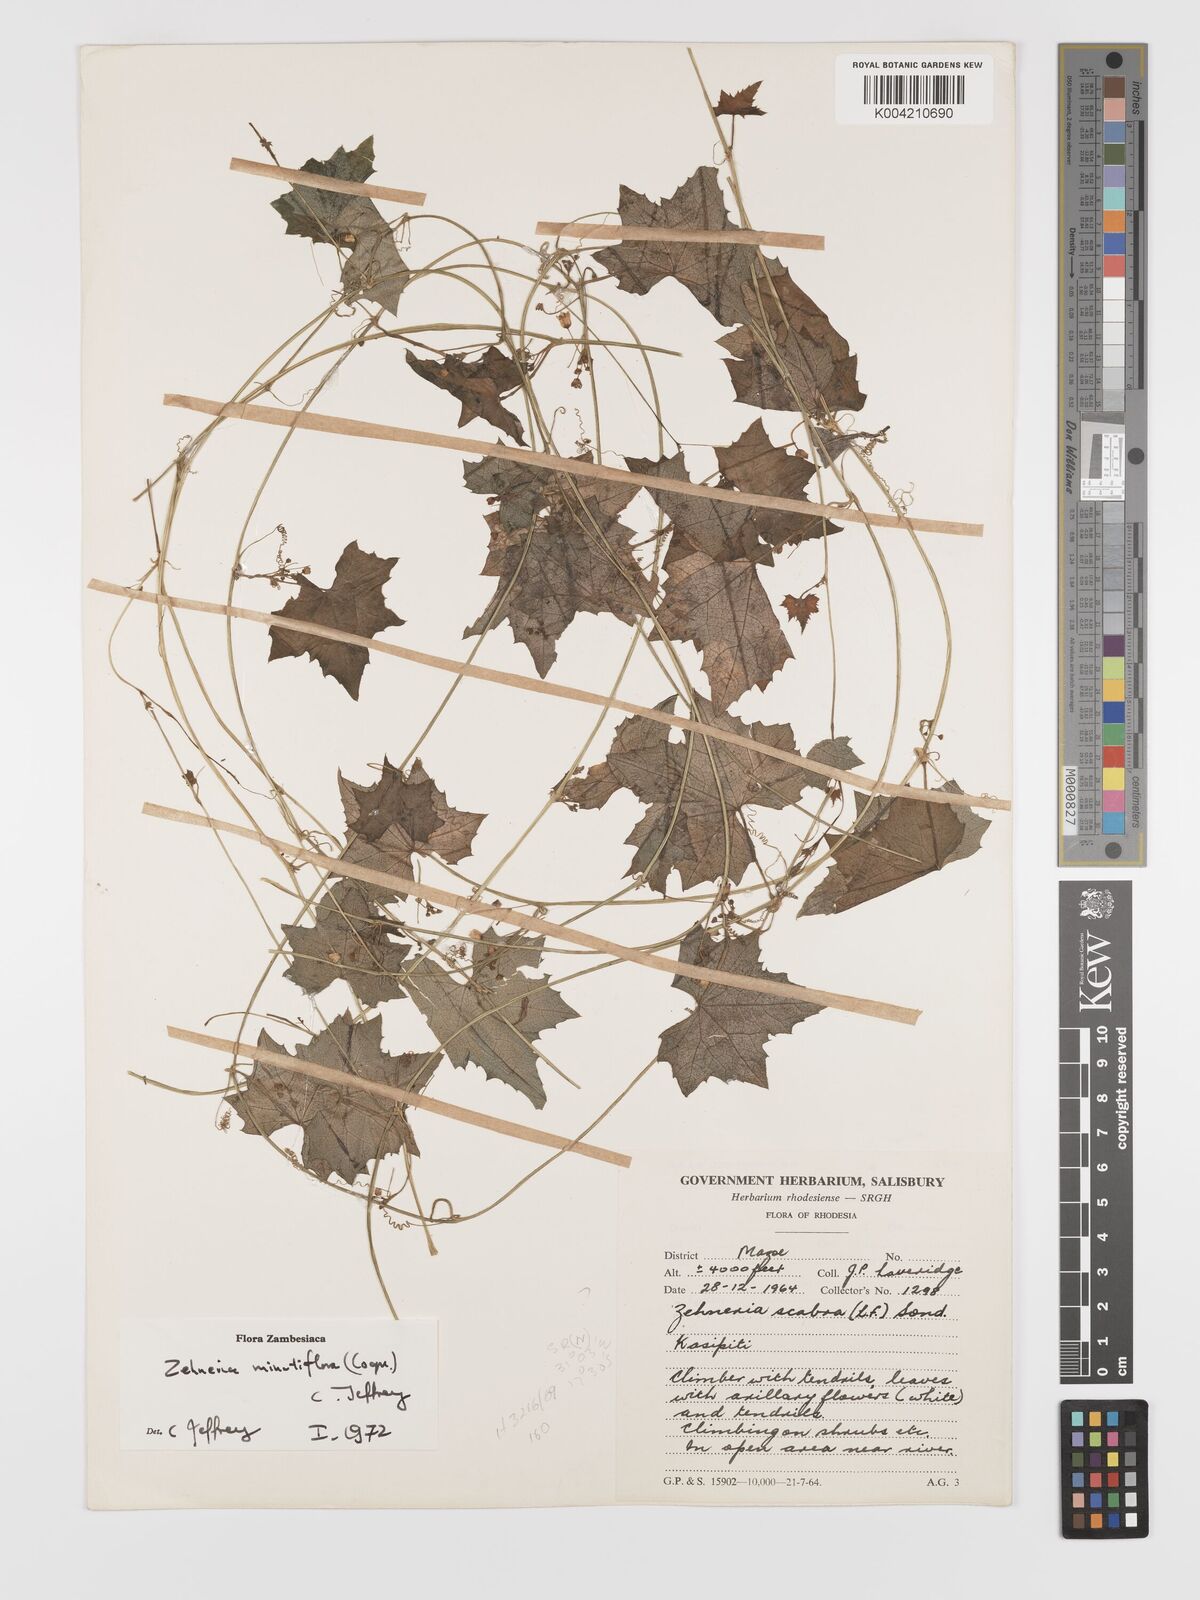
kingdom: Plantae
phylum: Tracheophyta
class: Magnoliopsida
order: Cucurbitales
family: Cucurbitaceae
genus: Zehneria
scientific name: Zehneria minutiflora
